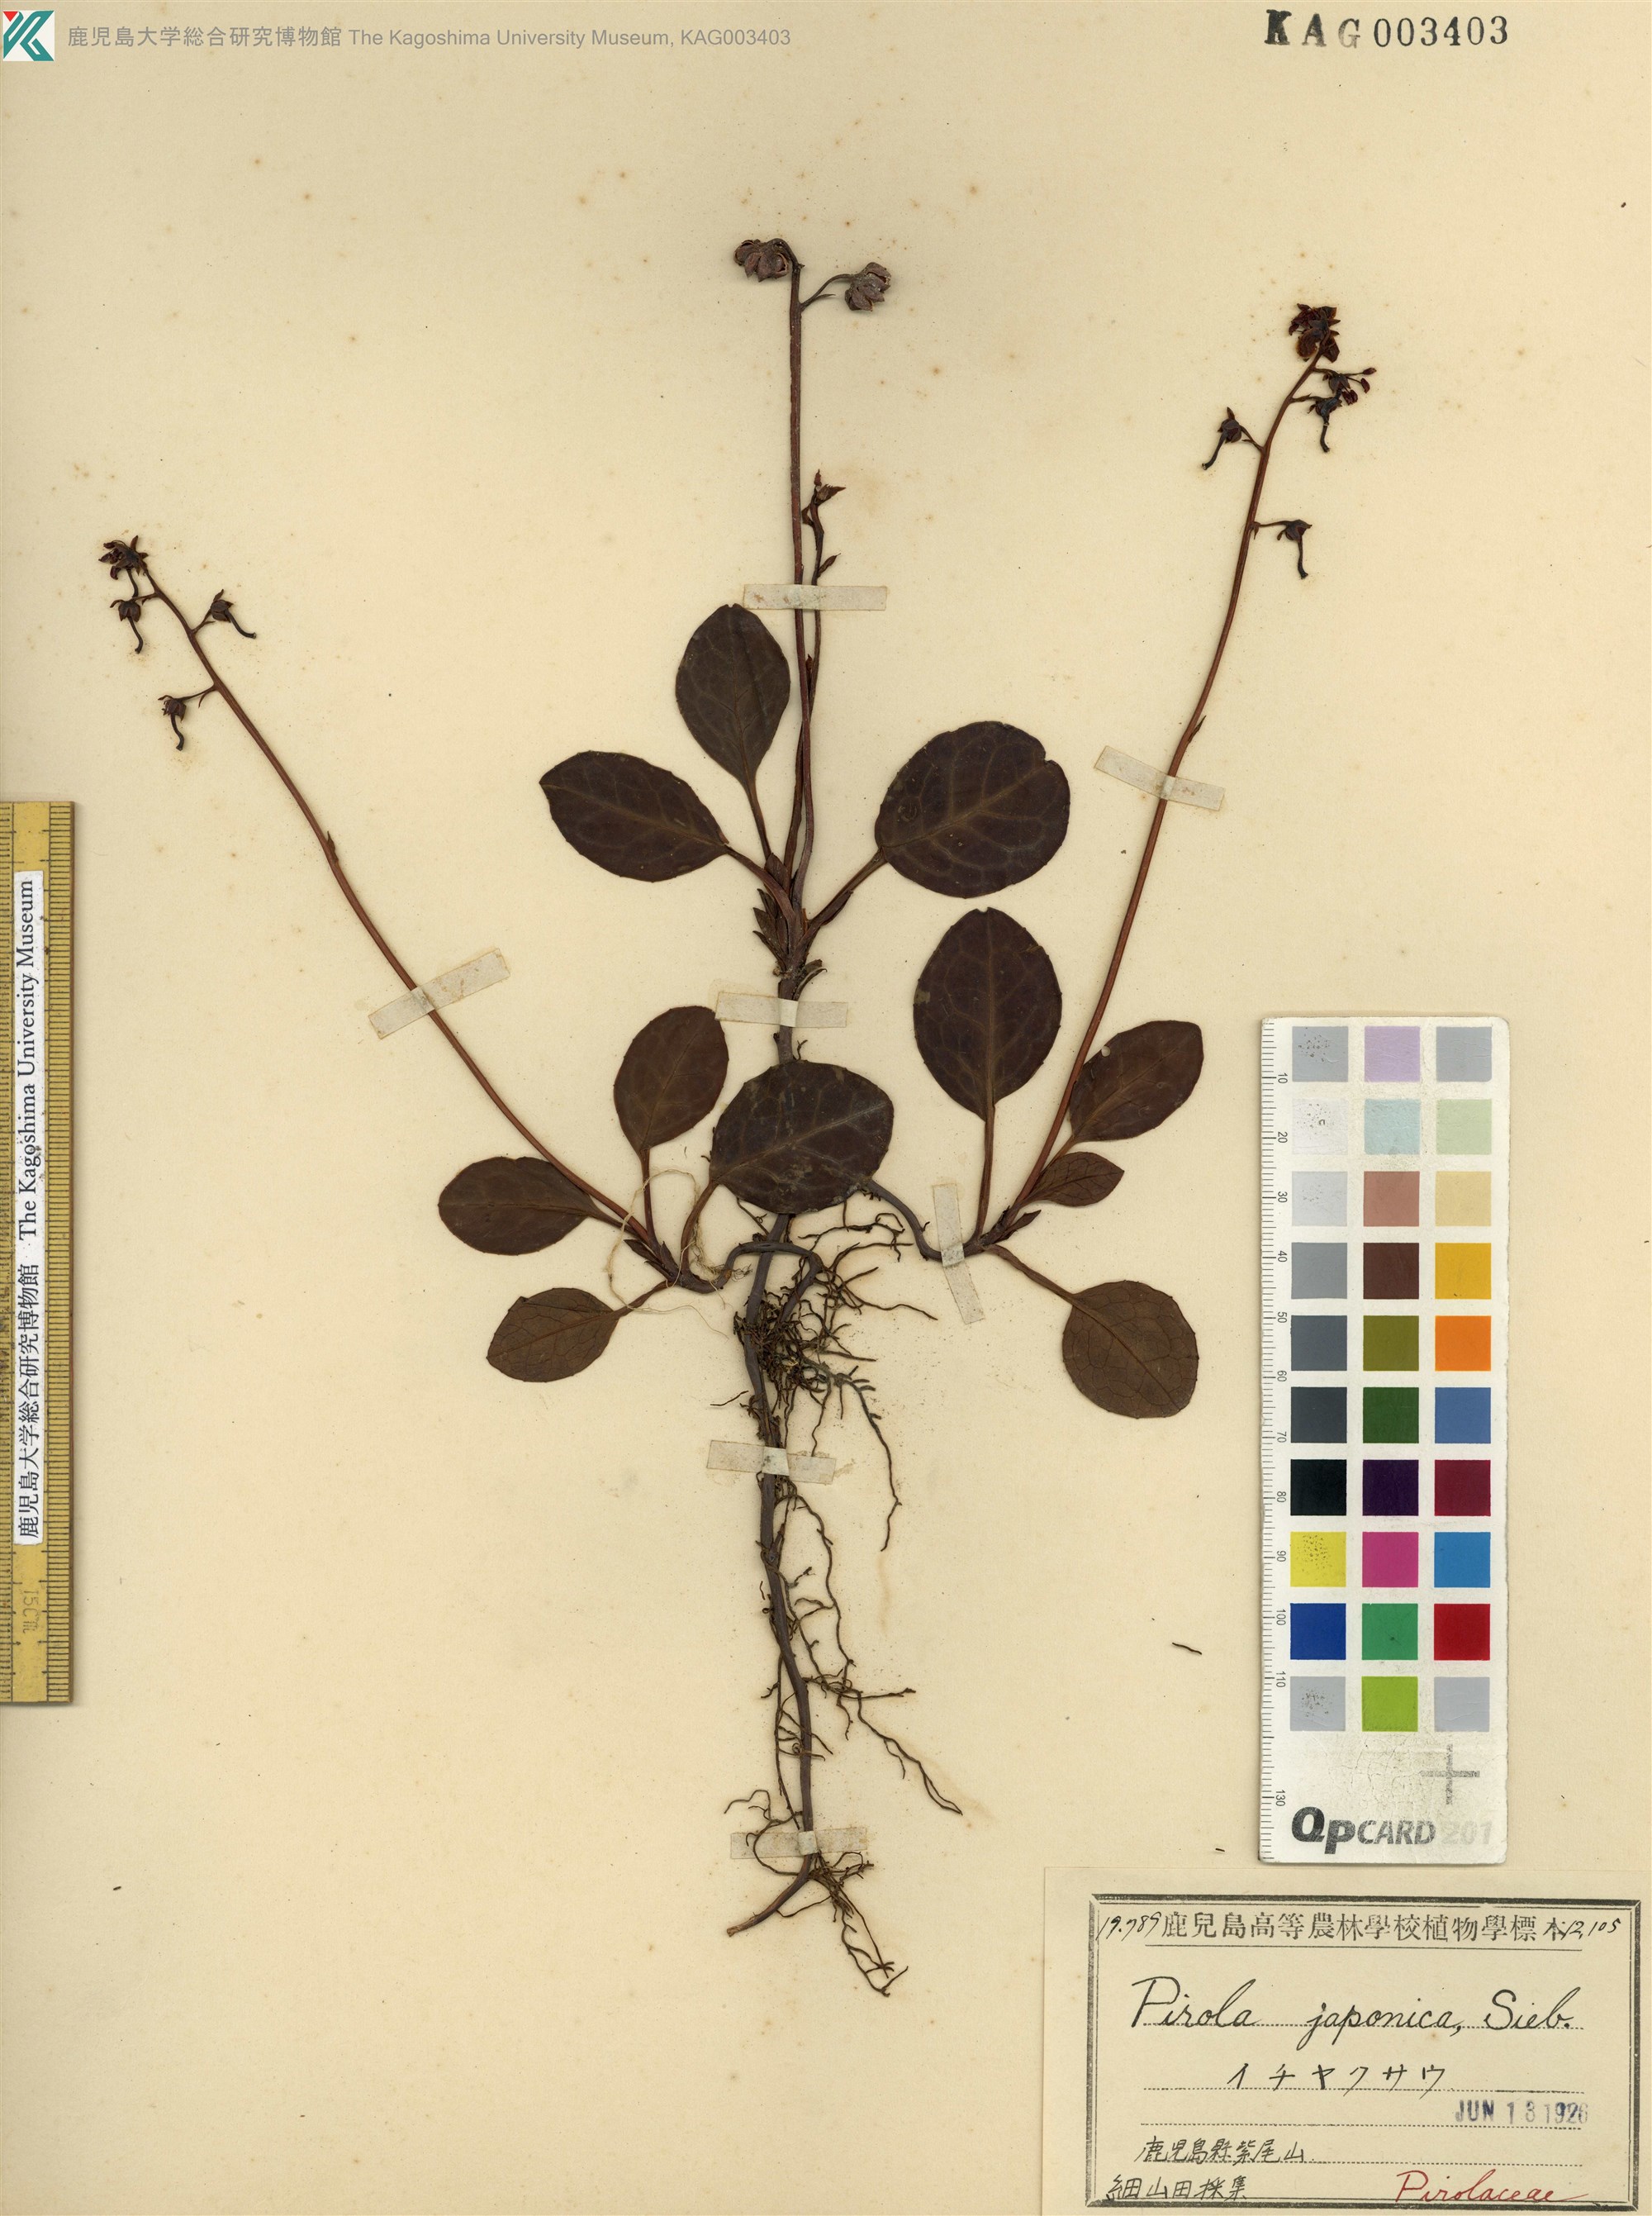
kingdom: Plantae
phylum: Tracheophyta
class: Magnoliopsida
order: Ericales
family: Ericaceae
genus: Pyrola
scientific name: Pyrola japonica
